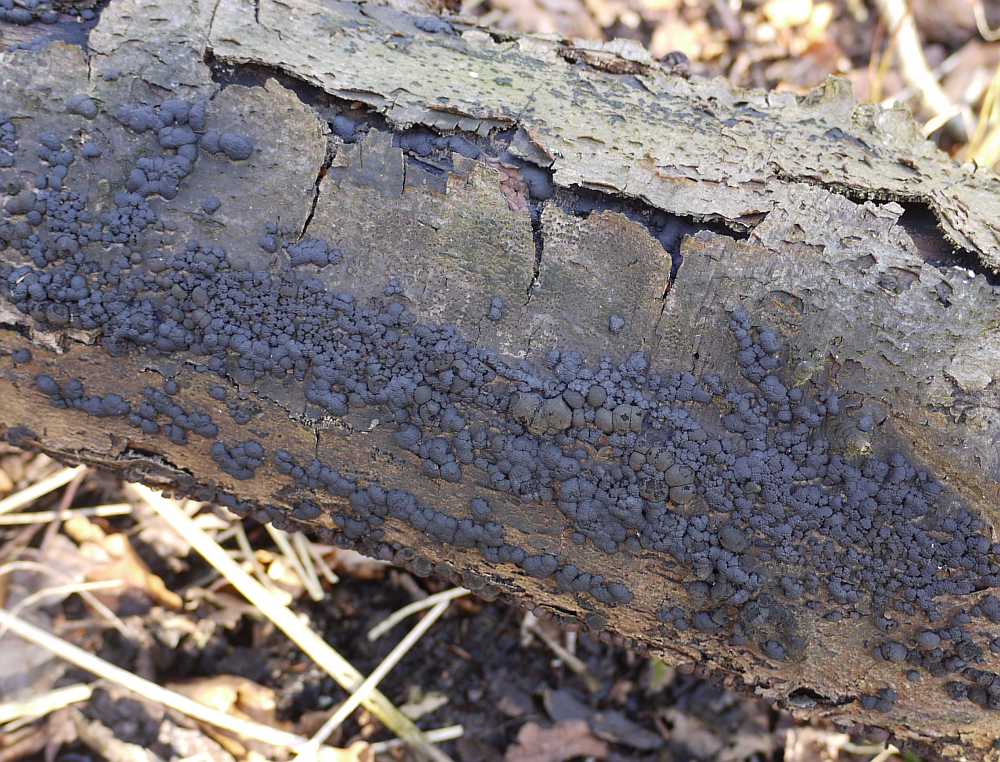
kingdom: Fungi
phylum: Ascomycota
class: Sordariomycetes
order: Xylariales
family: Hypoxylaceae
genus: Jackrogersella
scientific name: Jackrogersella cohaerens
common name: sammenflydende kulbær
